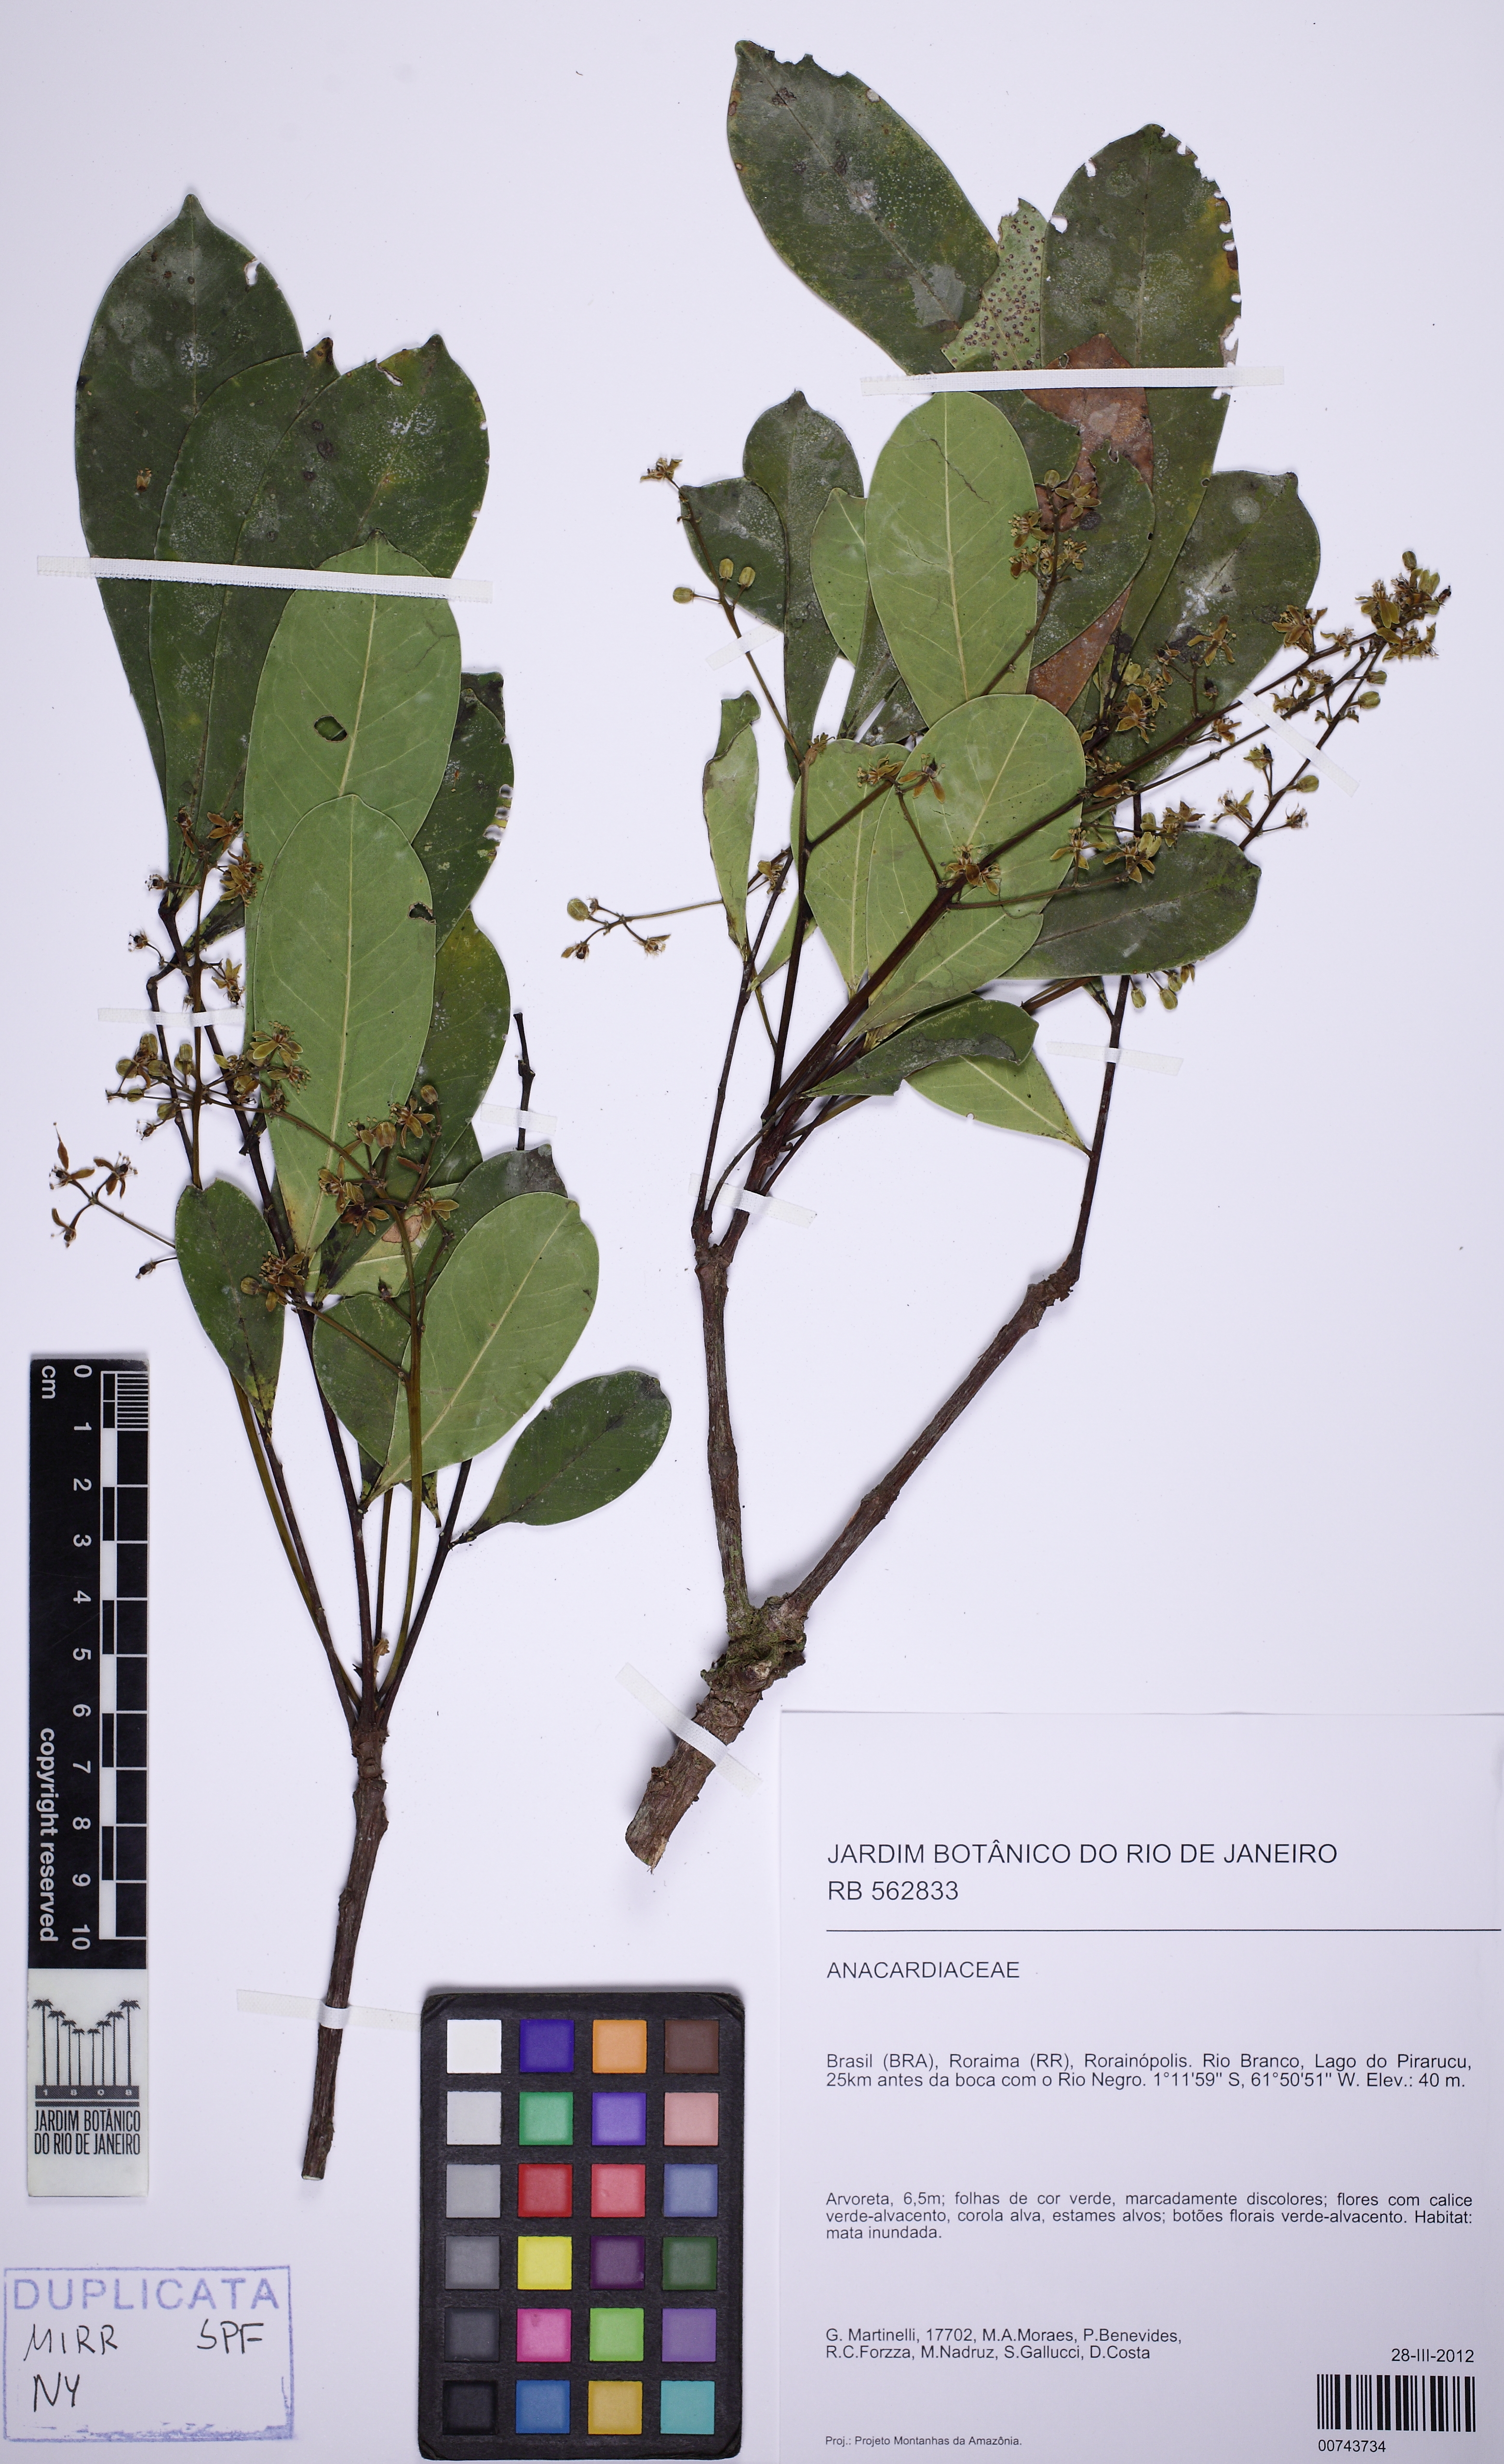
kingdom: Plantae
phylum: Tracheophyta
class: Magnoliopsida
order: Sapindales
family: Simaroubaceae
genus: Simaba
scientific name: Simaba orinocensis
